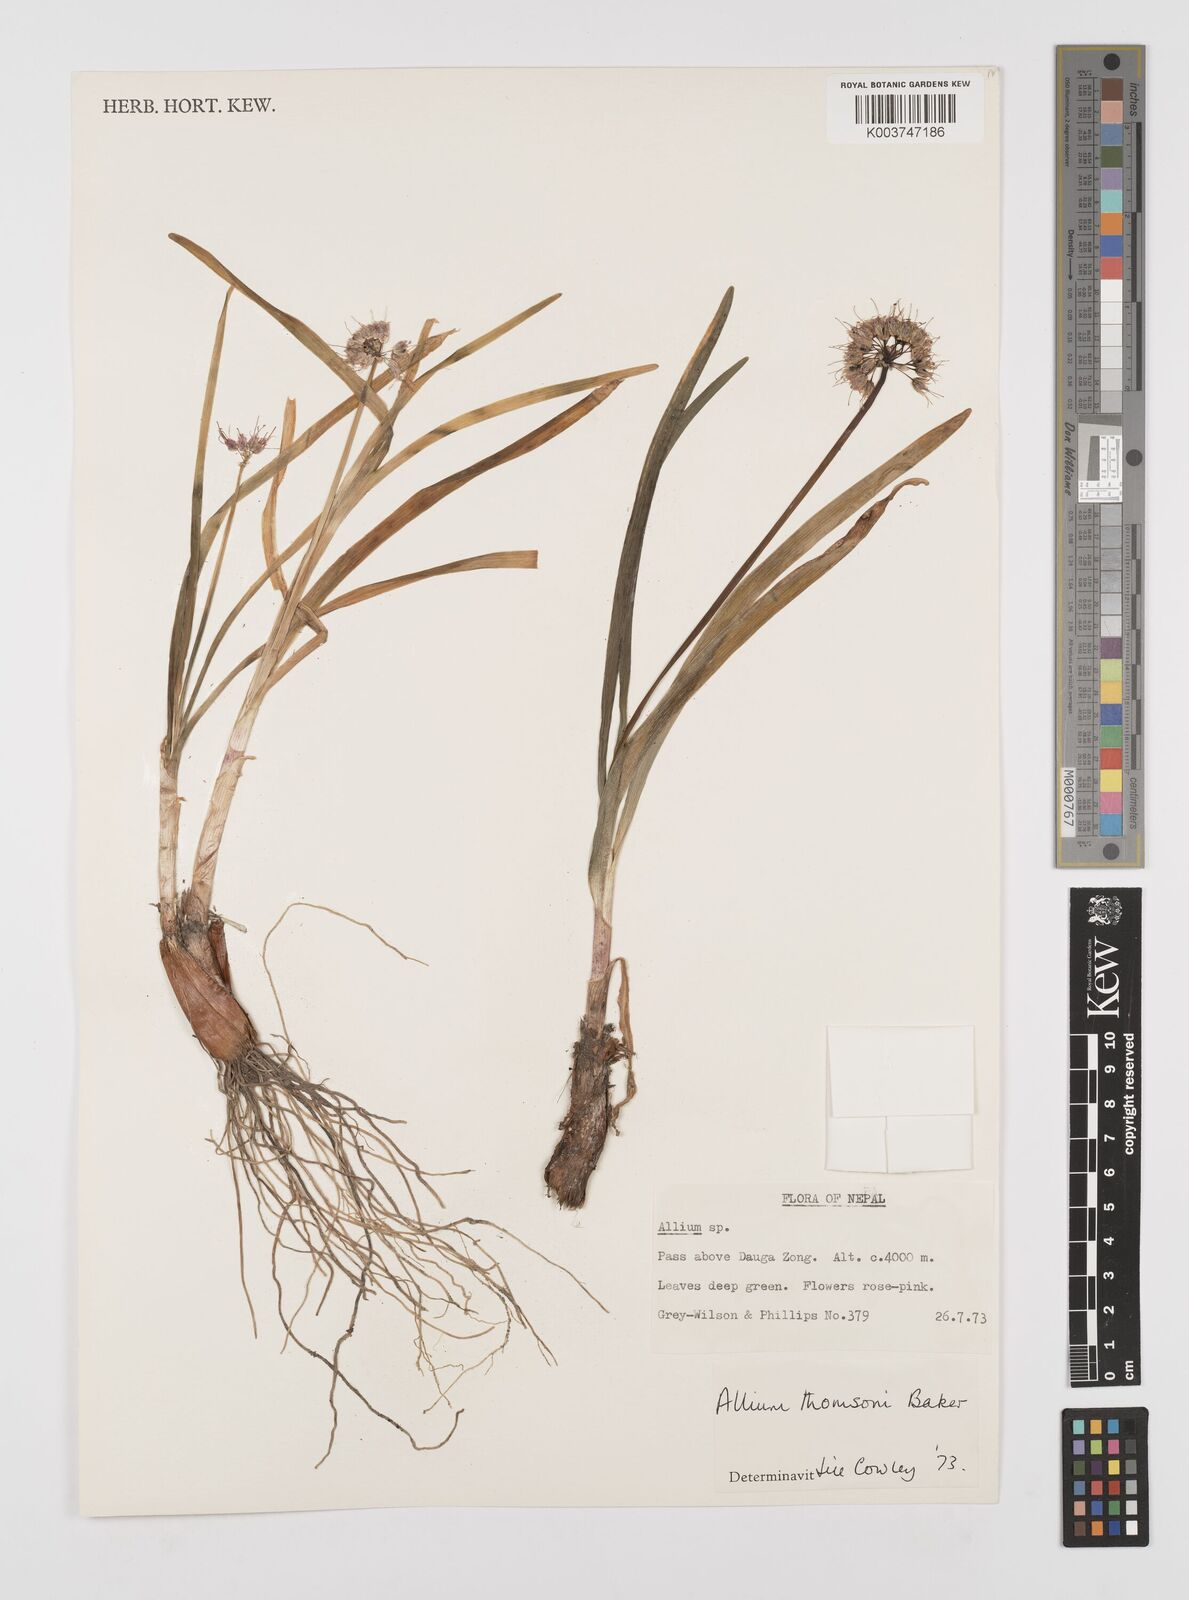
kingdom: Plantae
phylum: Tracheophyta
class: Liliopsida
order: Asparagales
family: Amaryllidaceae
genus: Allium
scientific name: Allium carolinianum
